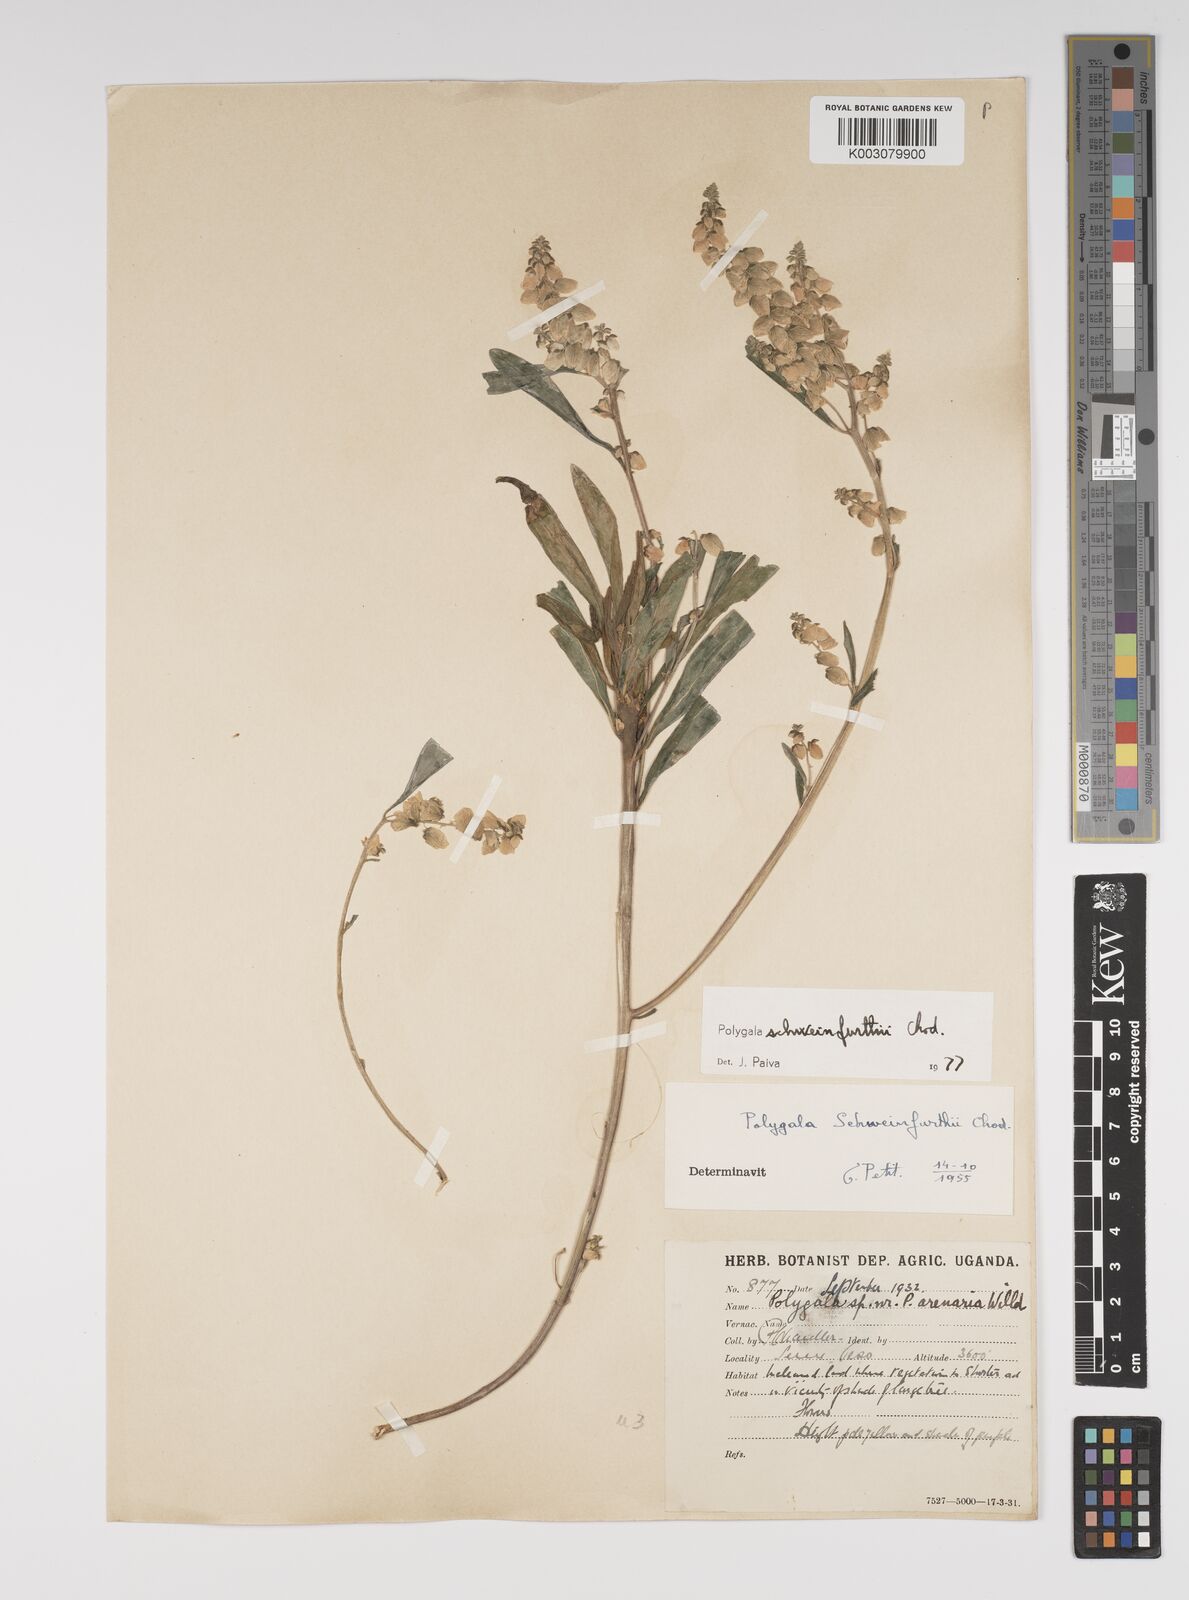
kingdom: Plantae
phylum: Tracheophyta
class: Magnoliopsida
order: Fabales
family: Polygalaceae
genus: Polygala
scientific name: Polygala schweinfurthii
